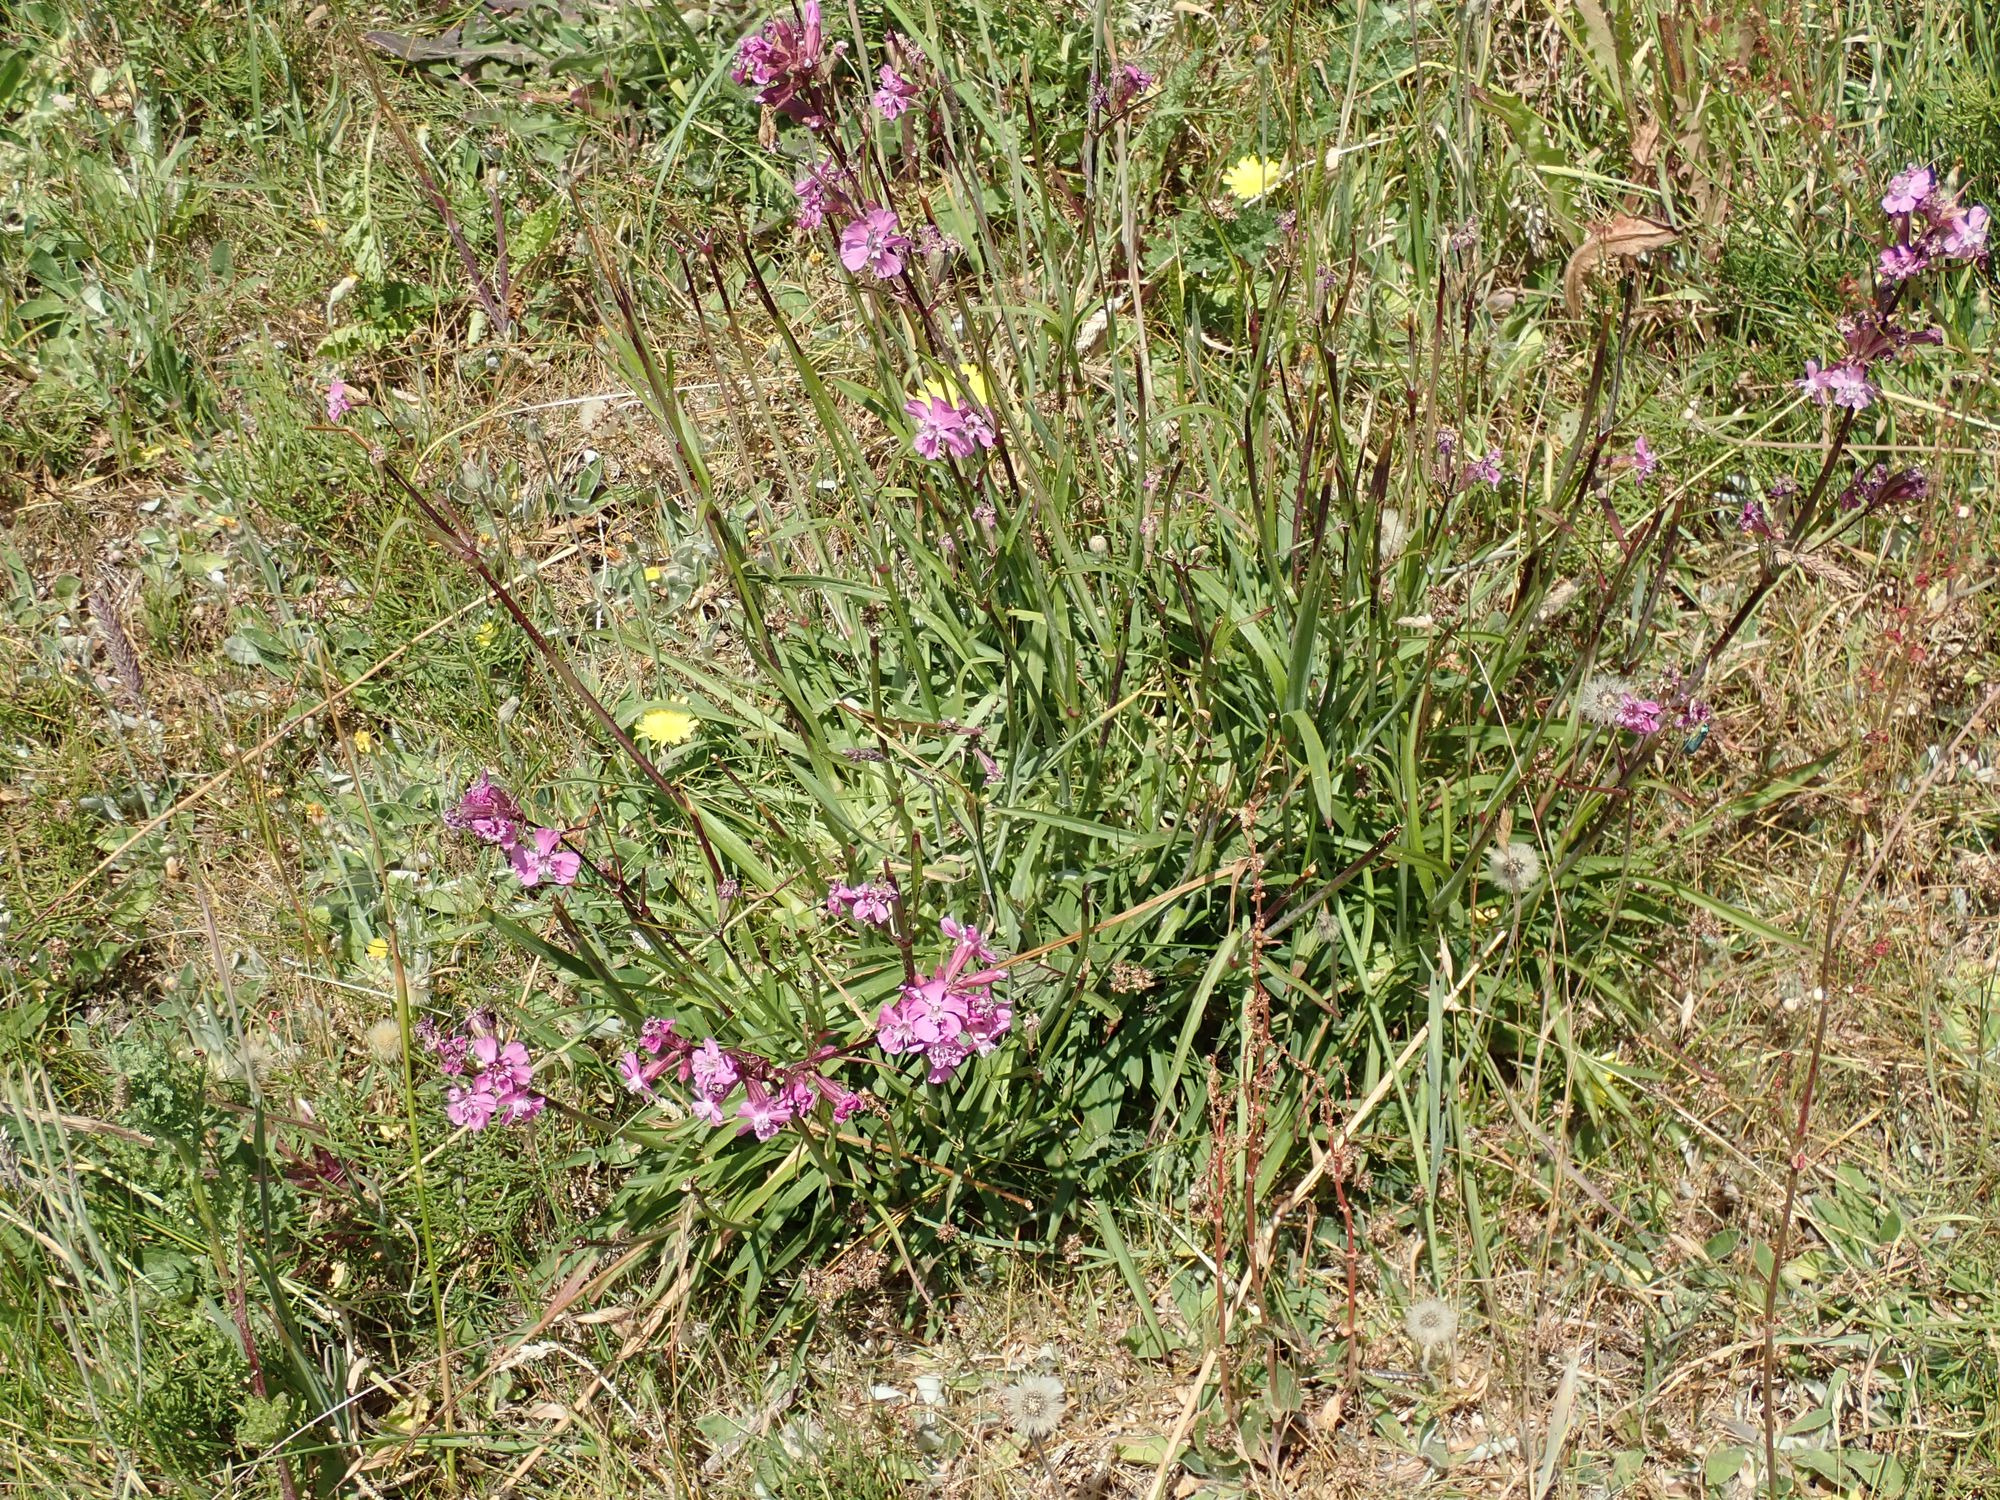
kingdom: Plantae
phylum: Tracheophyta
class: Magnoliopsida
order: Caryophyllales
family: Caryophyllaceae
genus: Viscaria
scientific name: Viscaria vulgaris
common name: Tjærenellike
